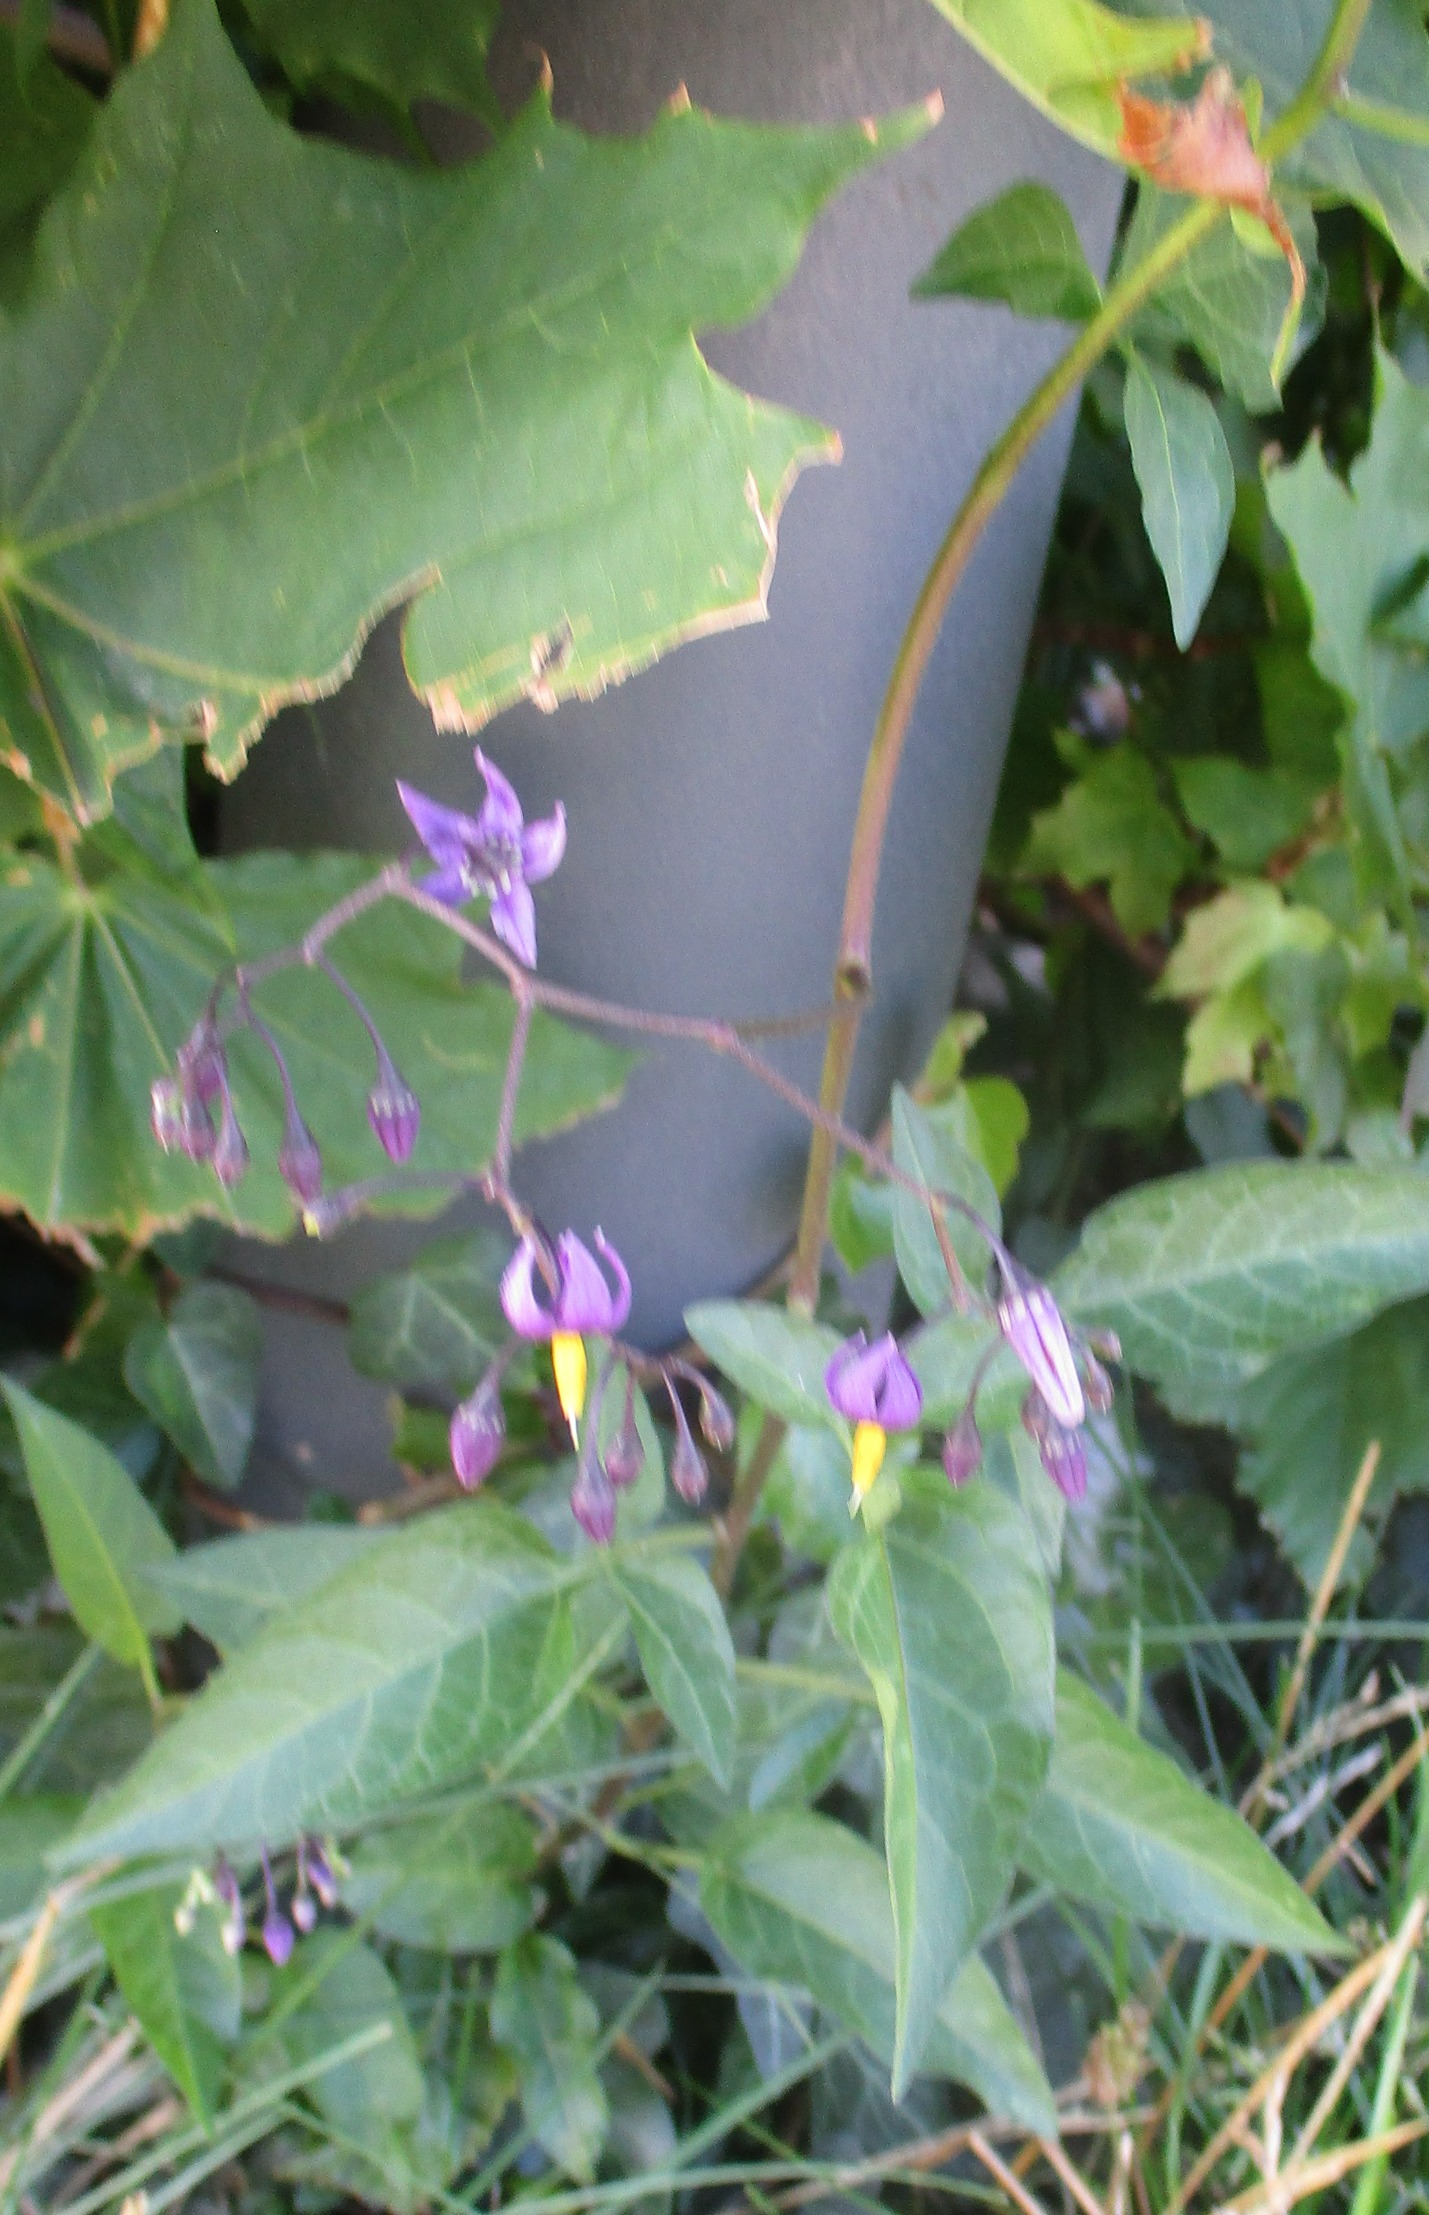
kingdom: Plantae
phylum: Tracheophyta
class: Magnoliopsida
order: Solanales
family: Solanaceae
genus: Solanum
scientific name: Solanum dulcamara
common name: Bittersød natskygge
